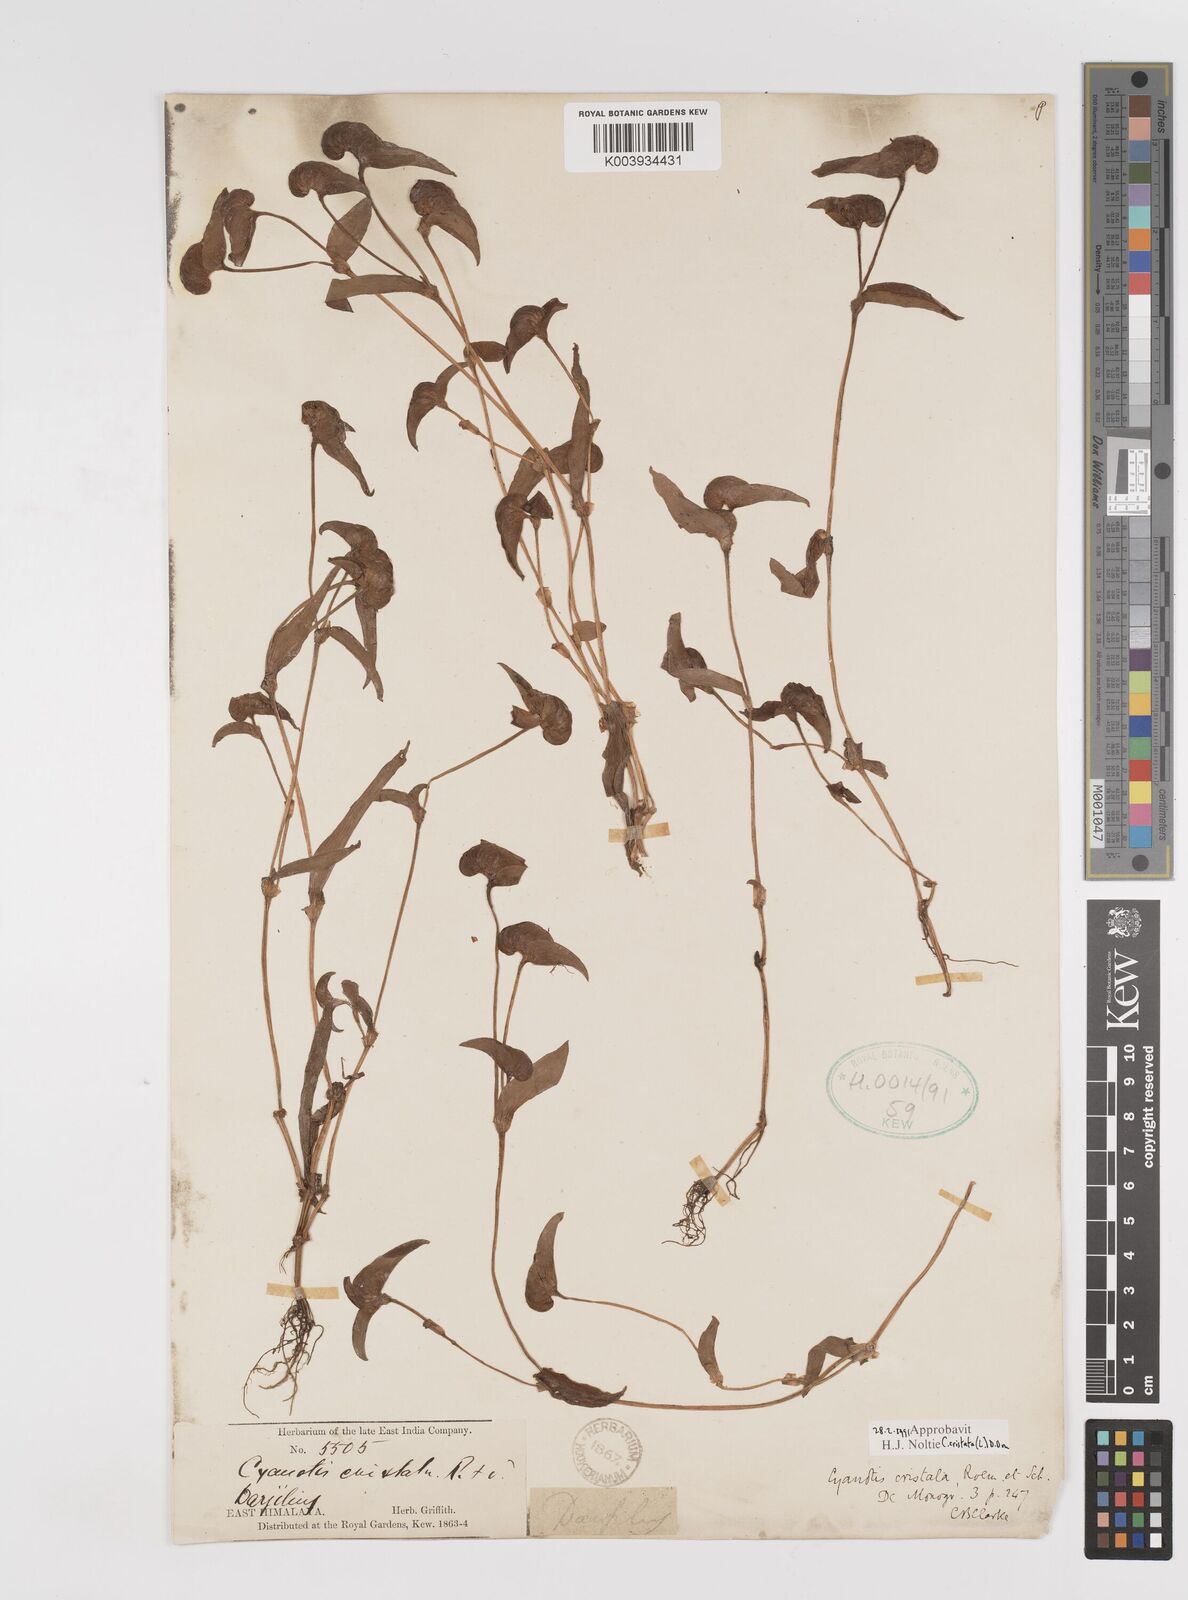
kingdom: Plantae
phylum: Tracheophyta
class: Liliopsida
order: Commelinales
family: Commelinaceae
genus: Cyanotis
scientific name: Cyanotis cristata
